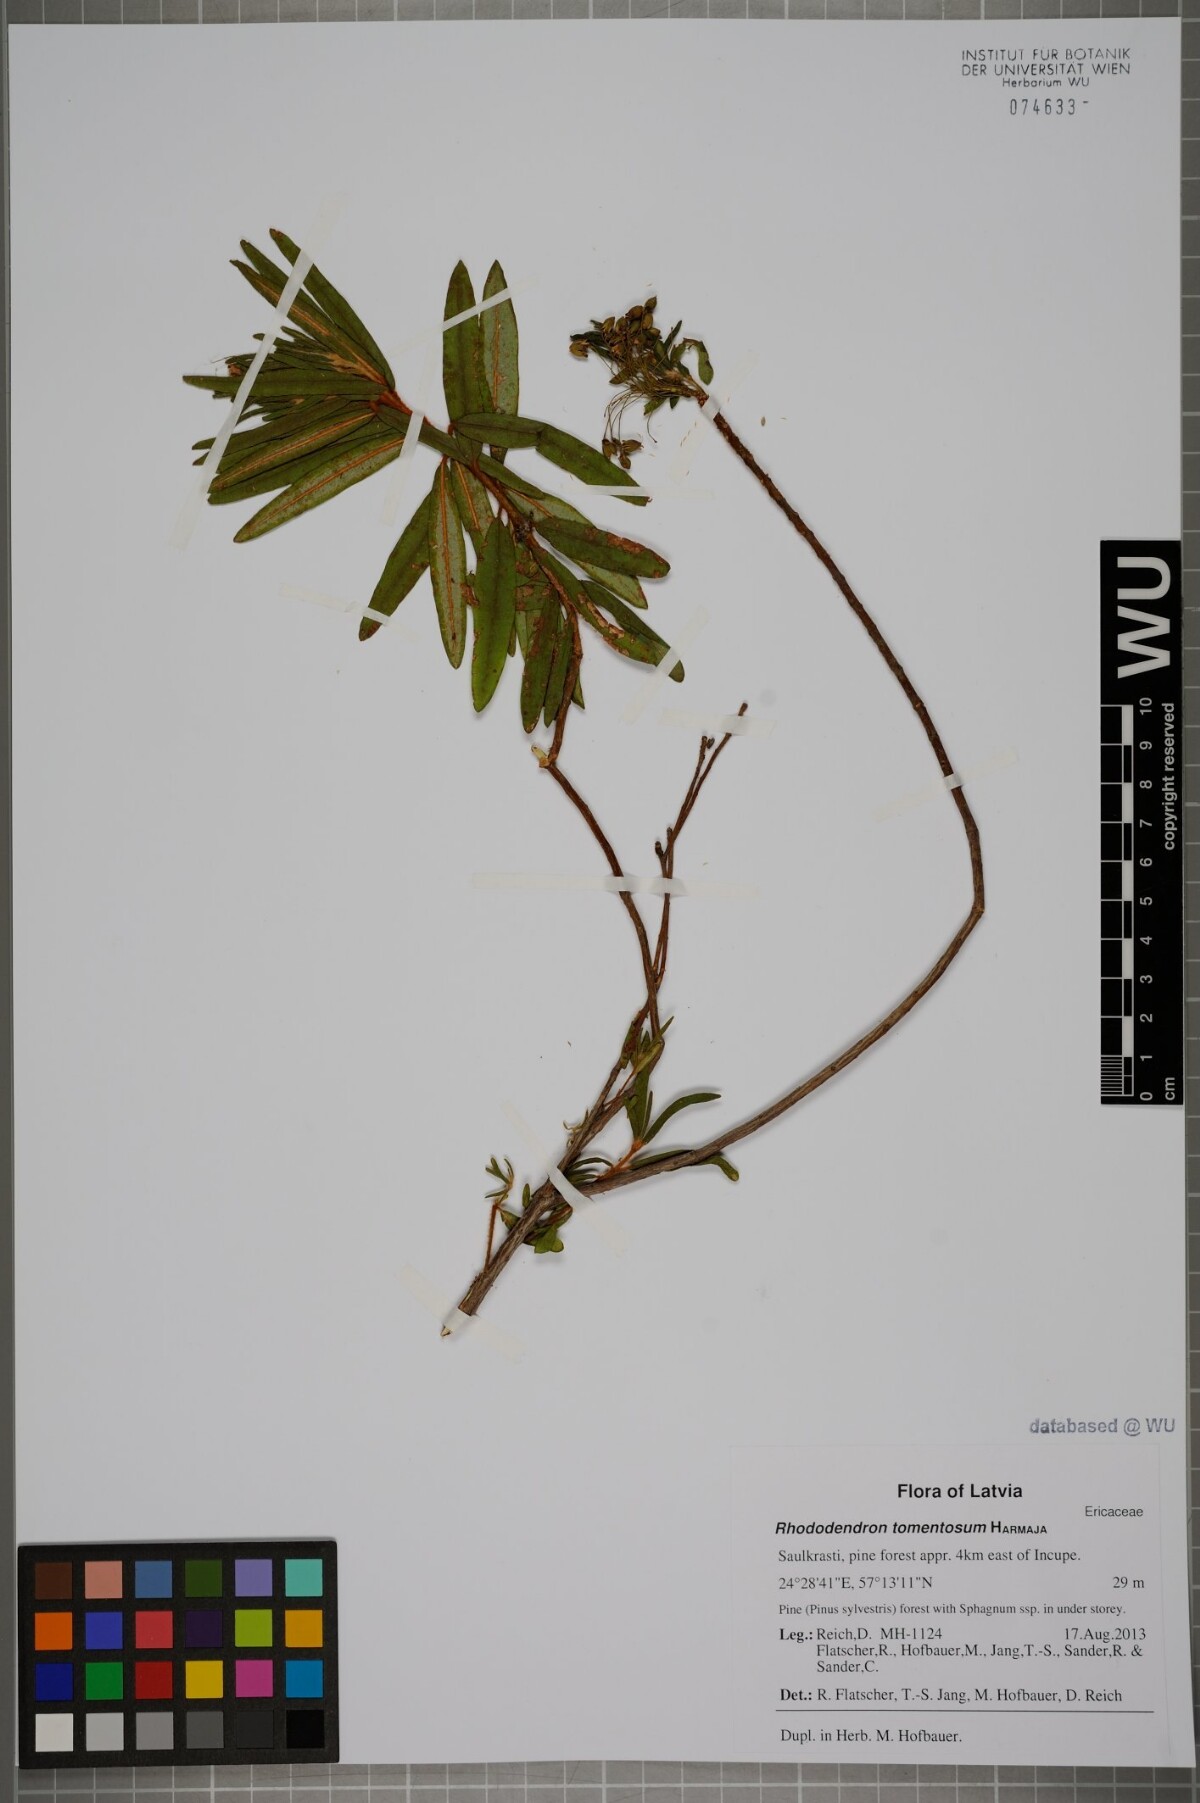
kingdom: Plantae
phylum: Tracheophyta
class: Magnoliopsida
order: Ericales
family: Ericaceae
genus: Rhododendron
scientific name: Rhododendron tomentosum
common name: Marsh labrador tea
